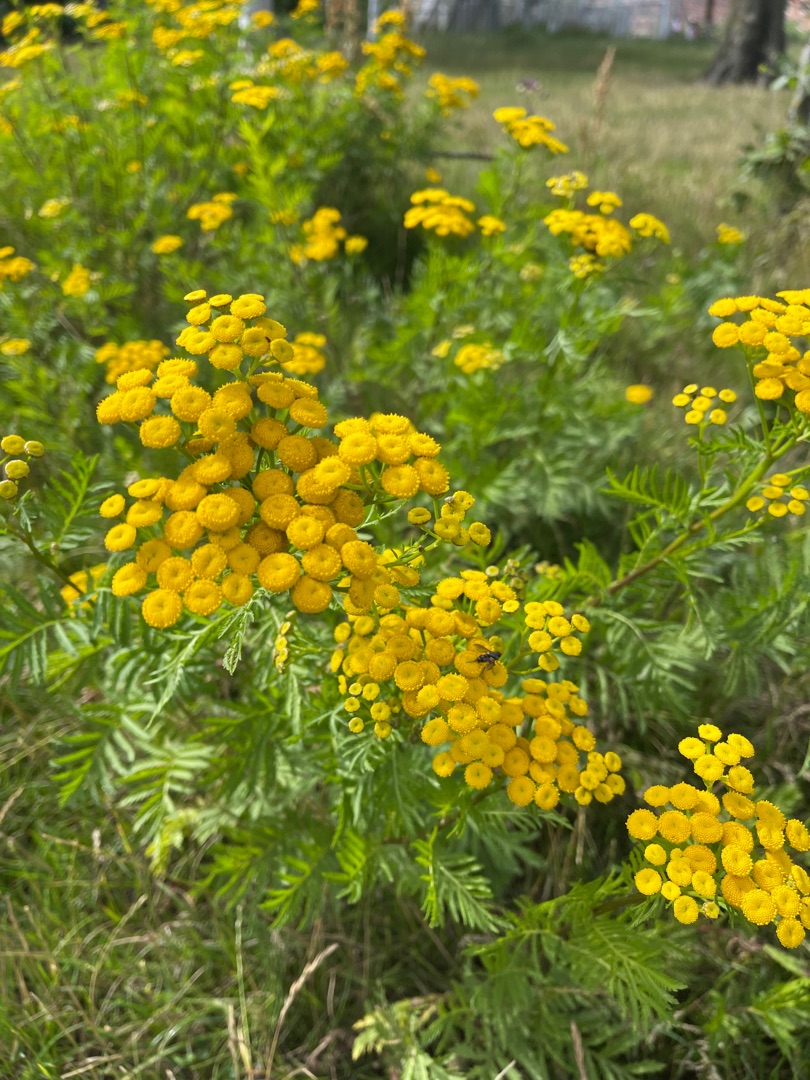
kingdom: Plantae
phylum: Tracheophyta
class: Magnoliopsida
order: Asterales
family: Asteraceae
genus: Tanacetum
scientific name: Tanacetum vulgare
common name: Rejnfan
